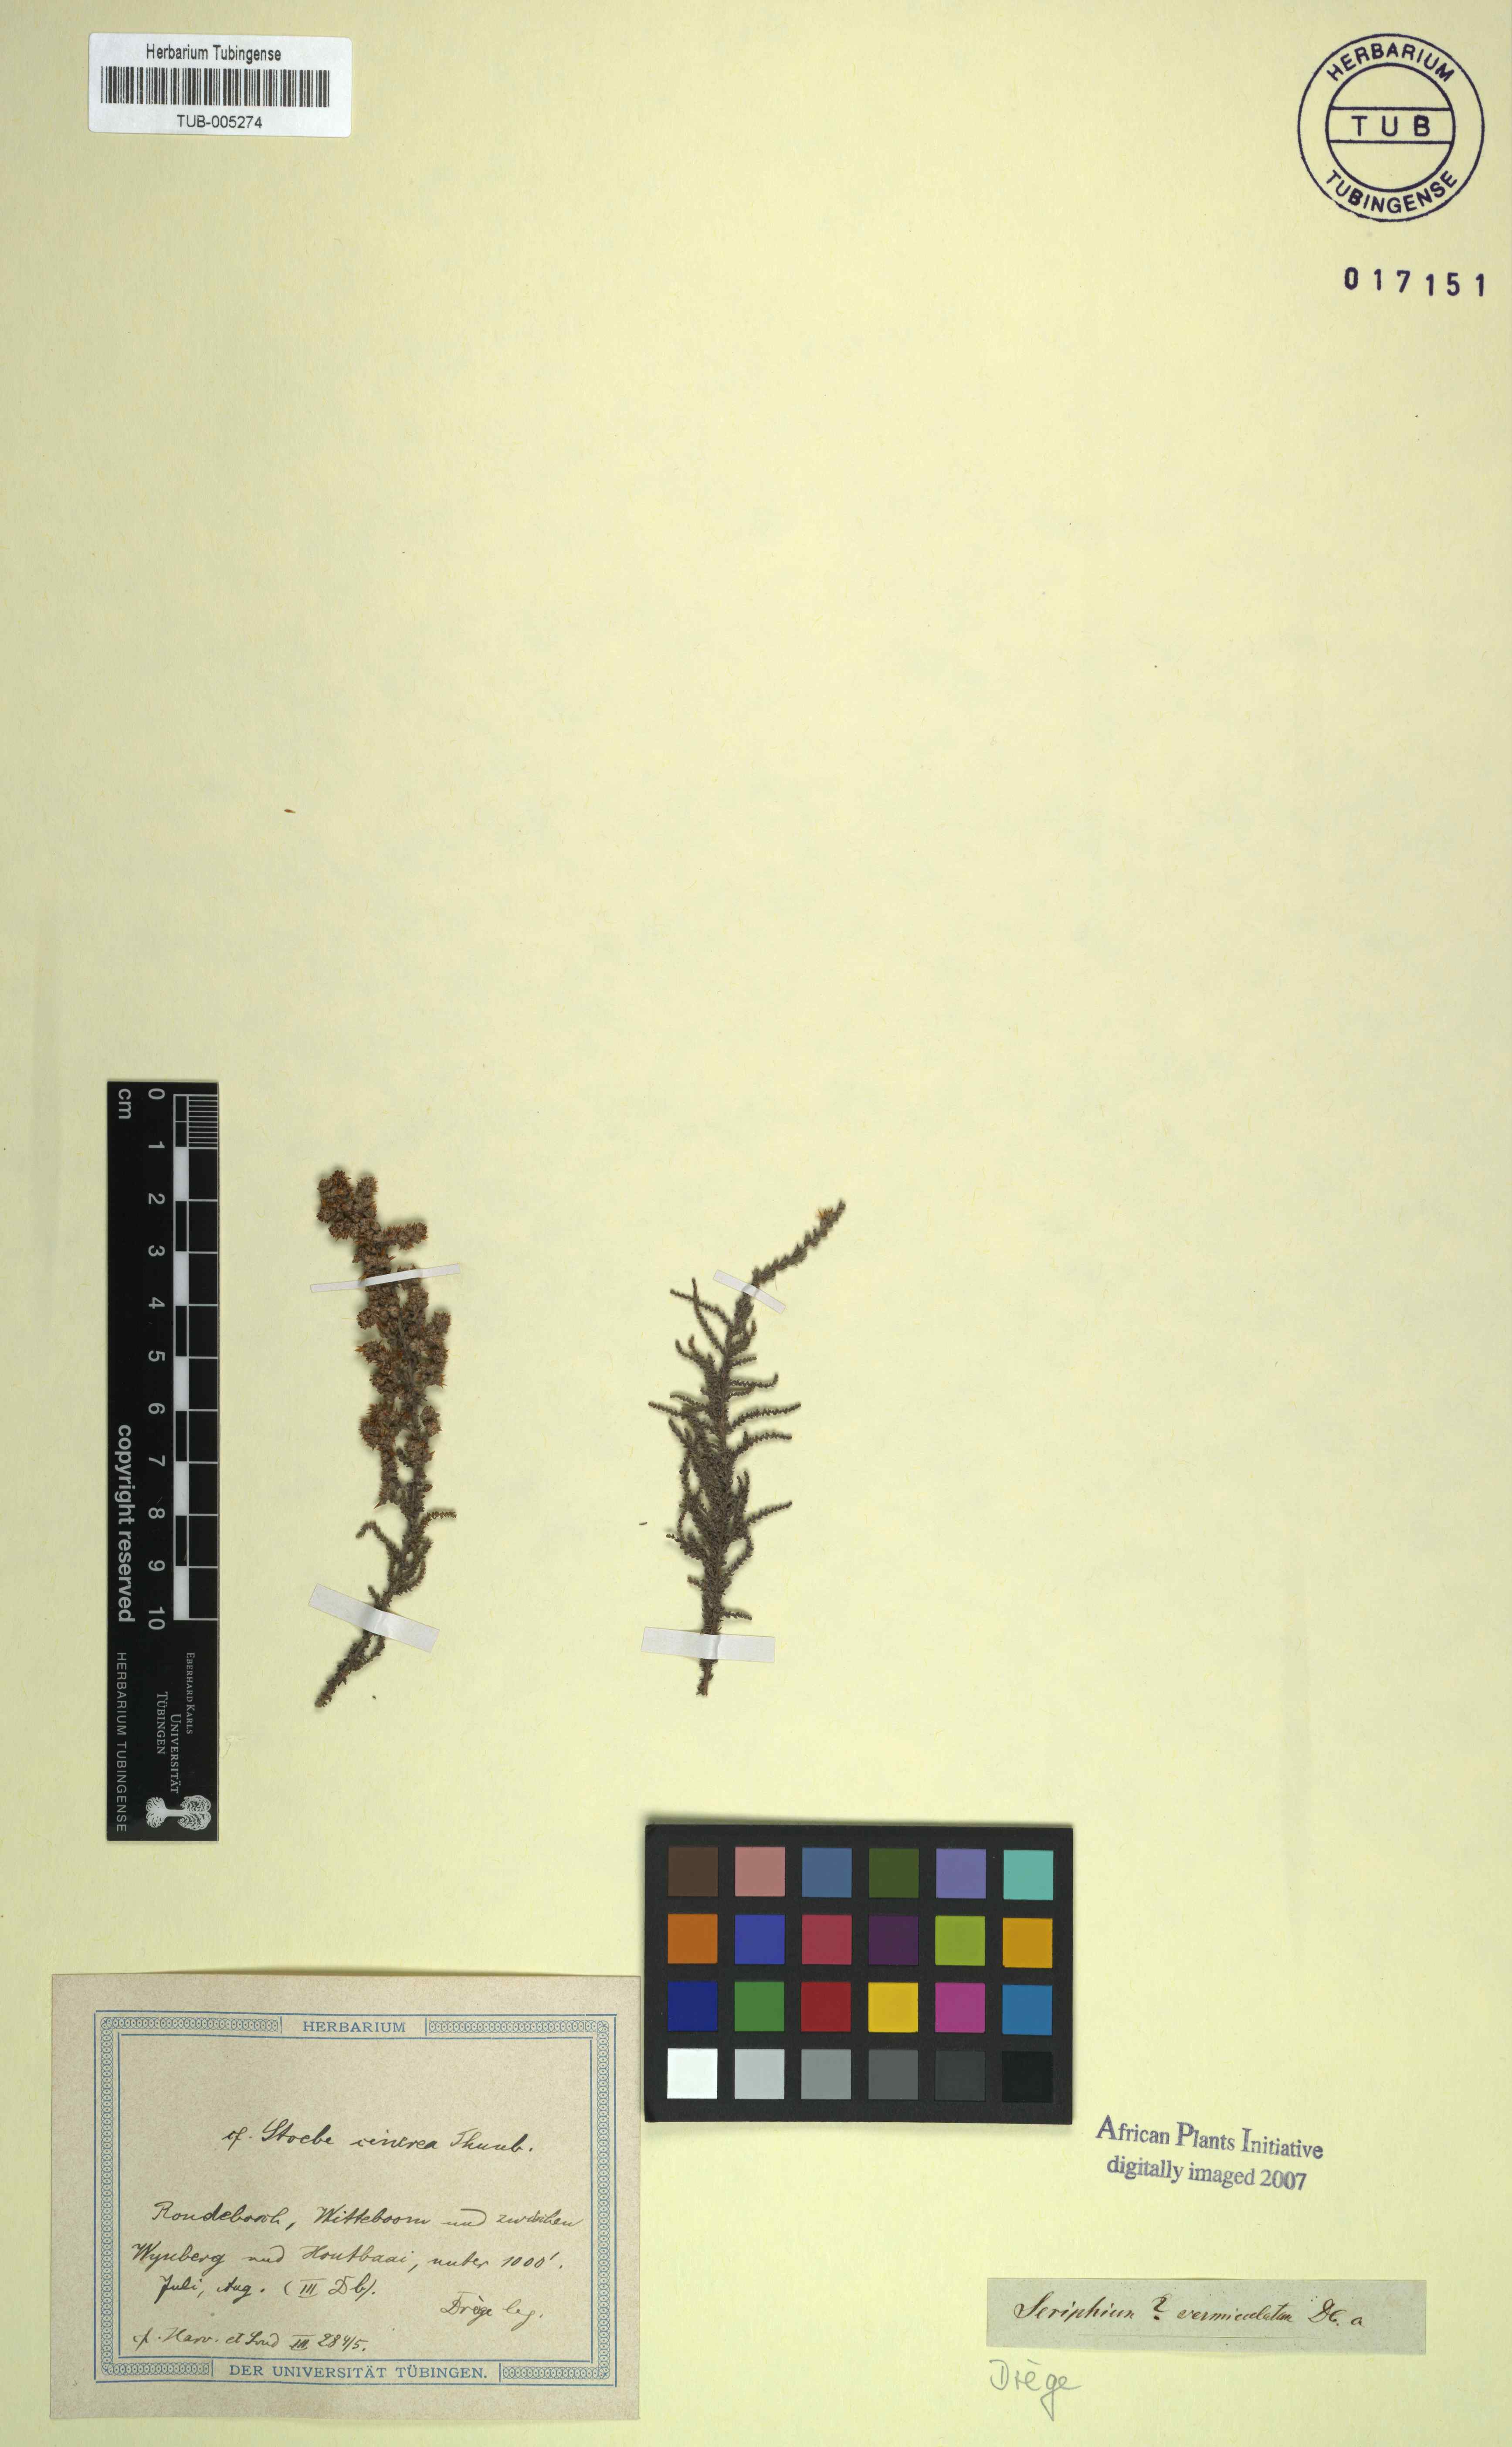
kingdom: Plantae
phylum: Tracheophyta
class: Magnoliopsida
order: Asterales
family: Asteraceae
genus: Seriphium
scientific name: Seriphium cinereum
